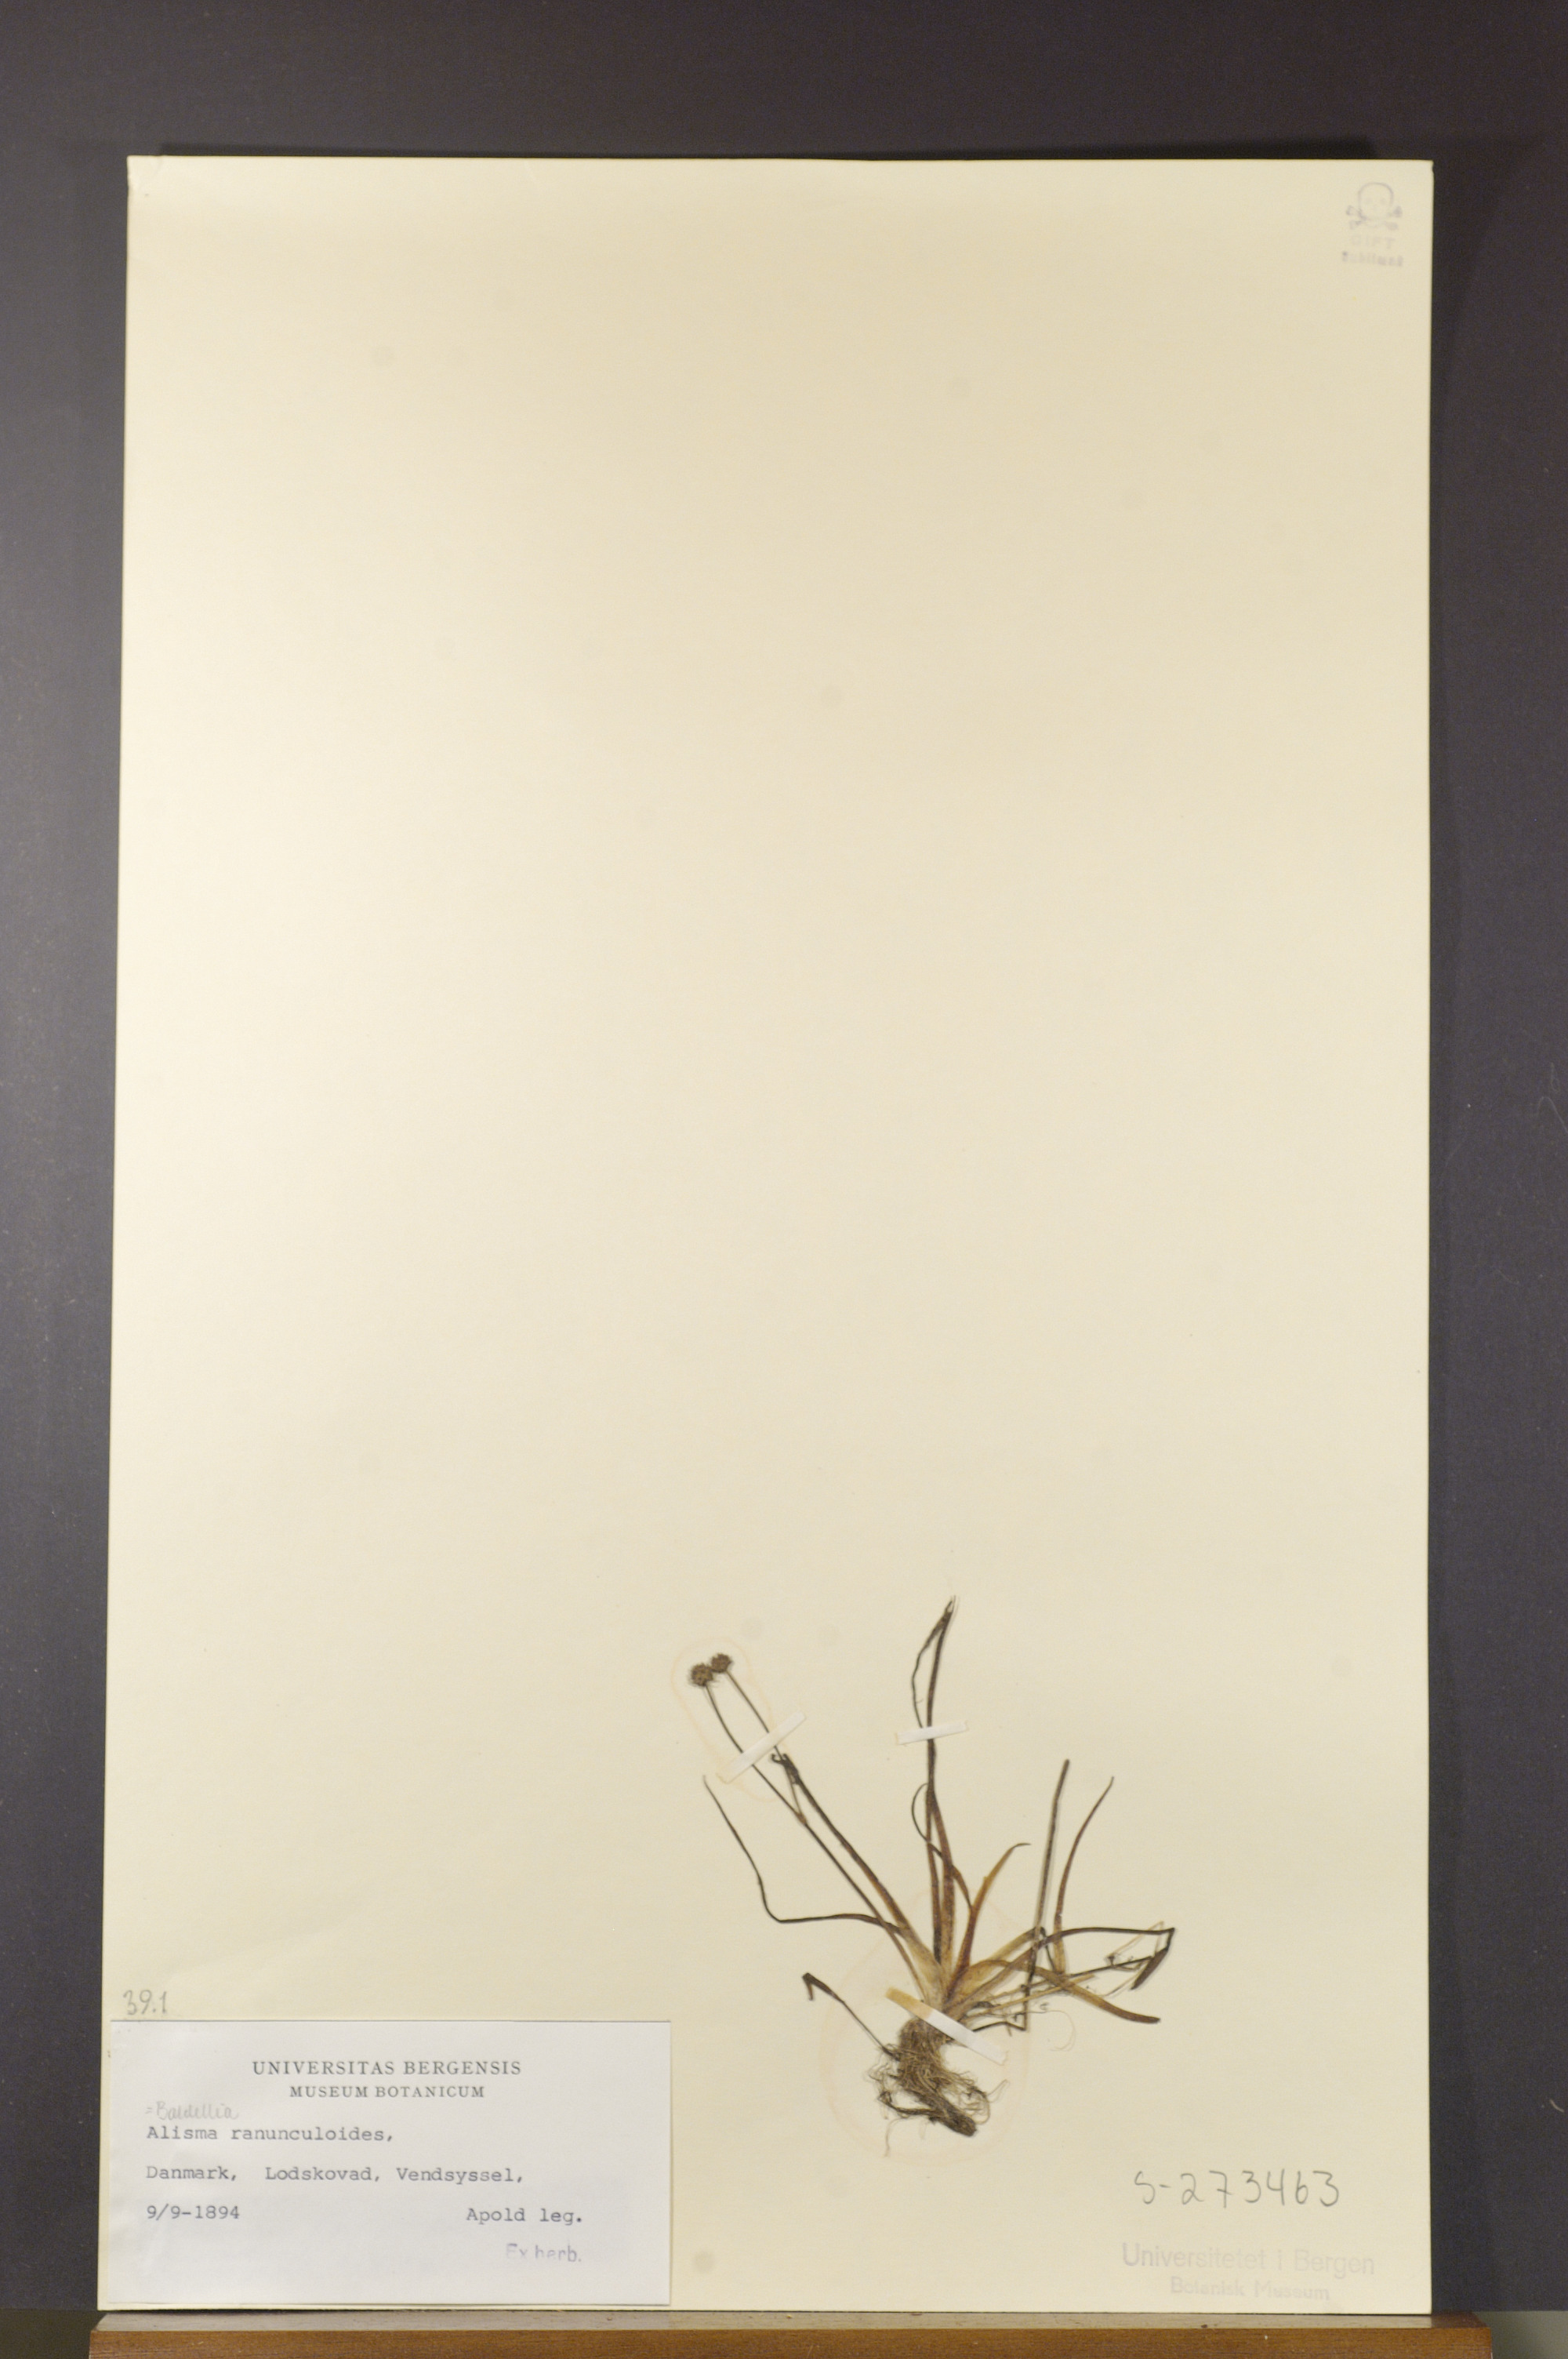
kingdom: Plantae
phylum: Tracheophyta
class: Liliopsida
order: Alismatales
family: Alismataceae
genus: Baldellia
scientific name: Baldellia ranunculoides
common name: Lesser water-plantain
